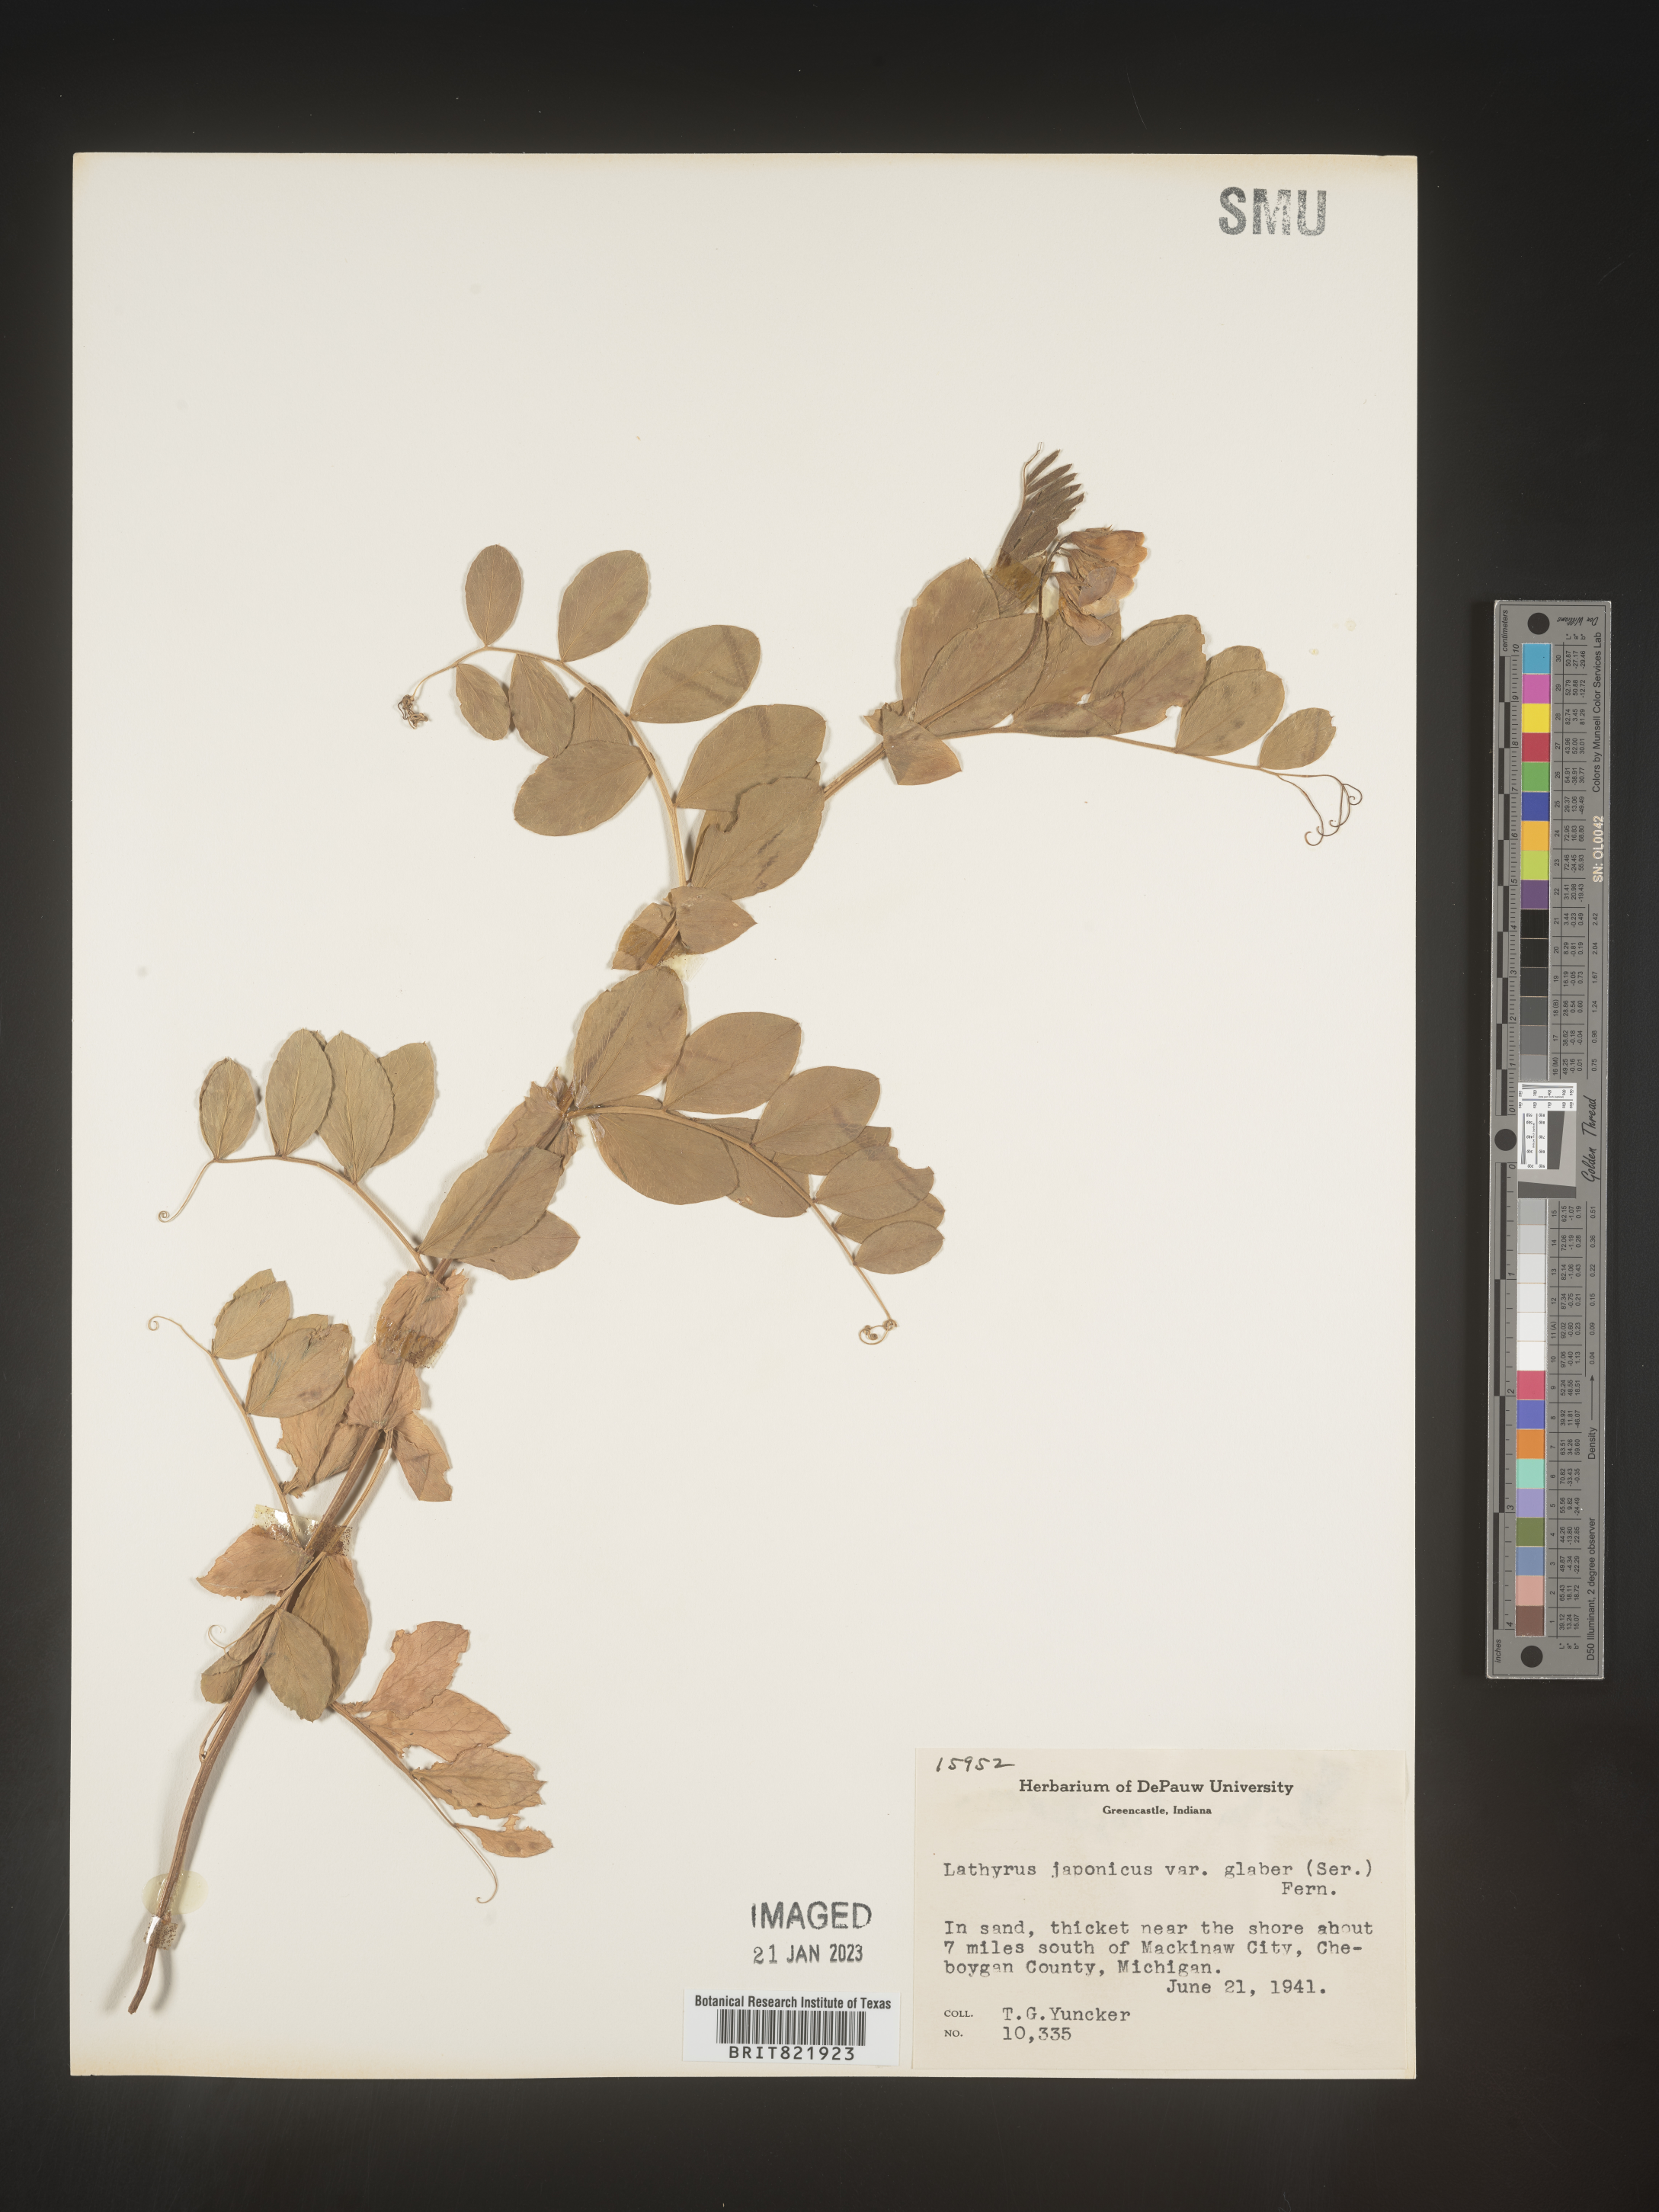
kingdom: Plantae
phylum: Tracheophyta
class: Magnoliopsida
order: Fabales
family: Fabaceae
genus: Lathyrus
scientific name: Lathyrus
